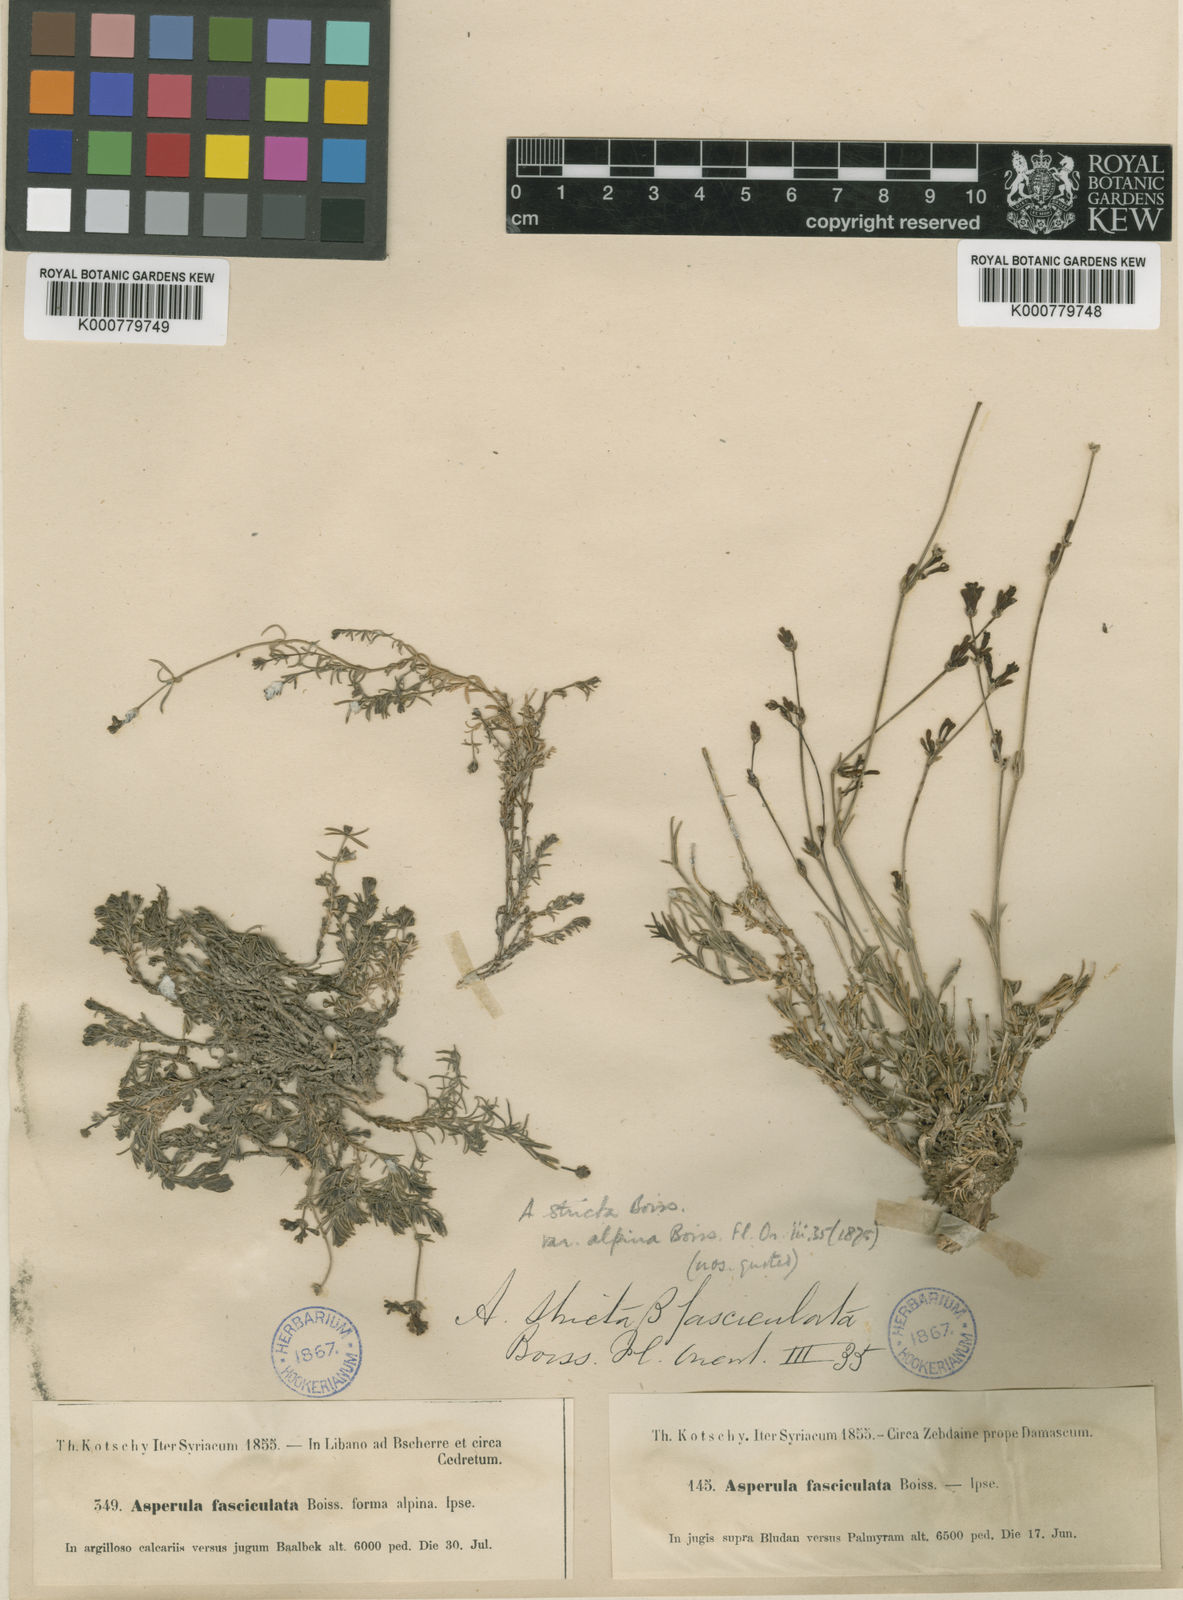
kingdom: Plantae
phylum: Tracheophyta
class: Magnoliopsida
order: Gentianales
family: Rubiaceae
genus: Cynanchica
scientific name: Cynanchica capitellata
